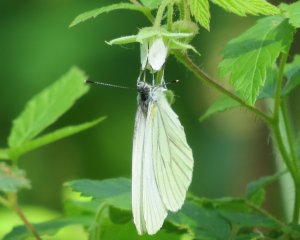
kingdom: Animalia
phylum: Arthropoda
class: Insecta
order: Lepidoptera
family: Pieridae
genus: Pieris
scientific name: Pieris oleracea
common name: Mustard White
